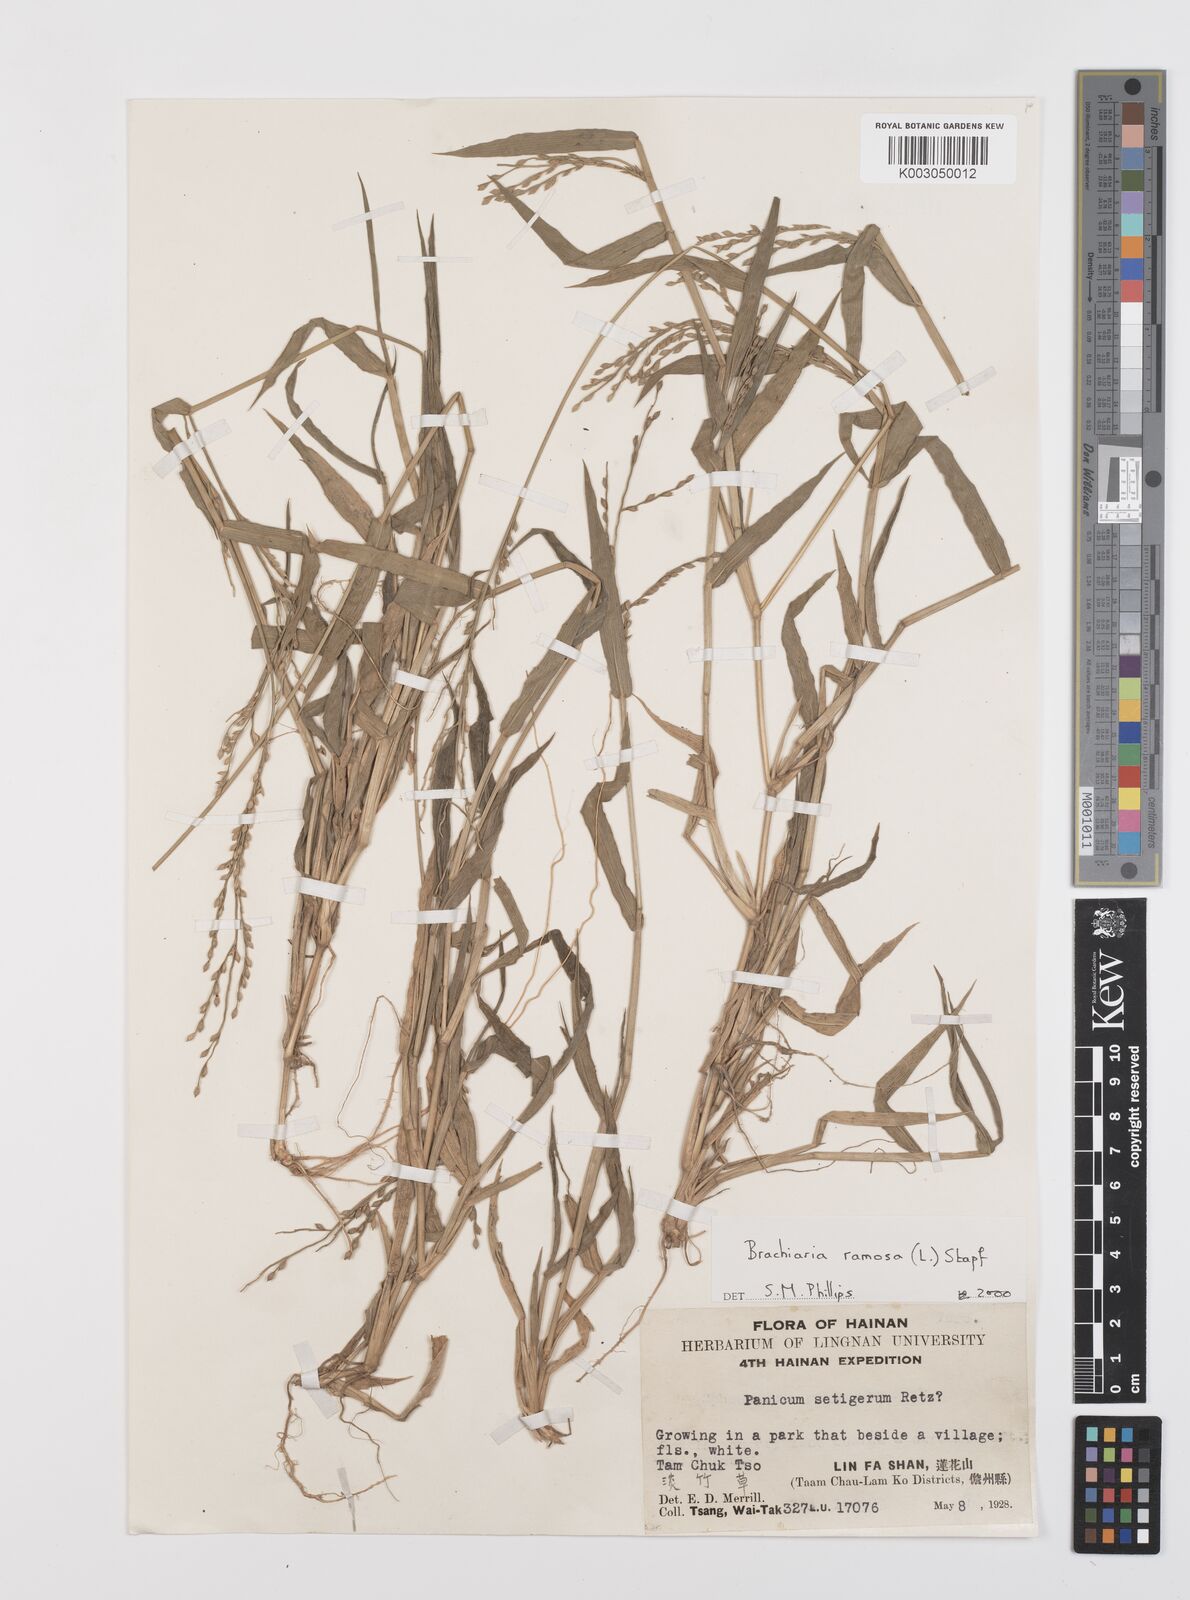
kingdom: Plantae
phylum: Tracheophyta
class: Liliopsida
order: Poales
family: Poaceae
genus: Urochloa
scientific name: Urochloa ramosa
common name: Browntop millet
